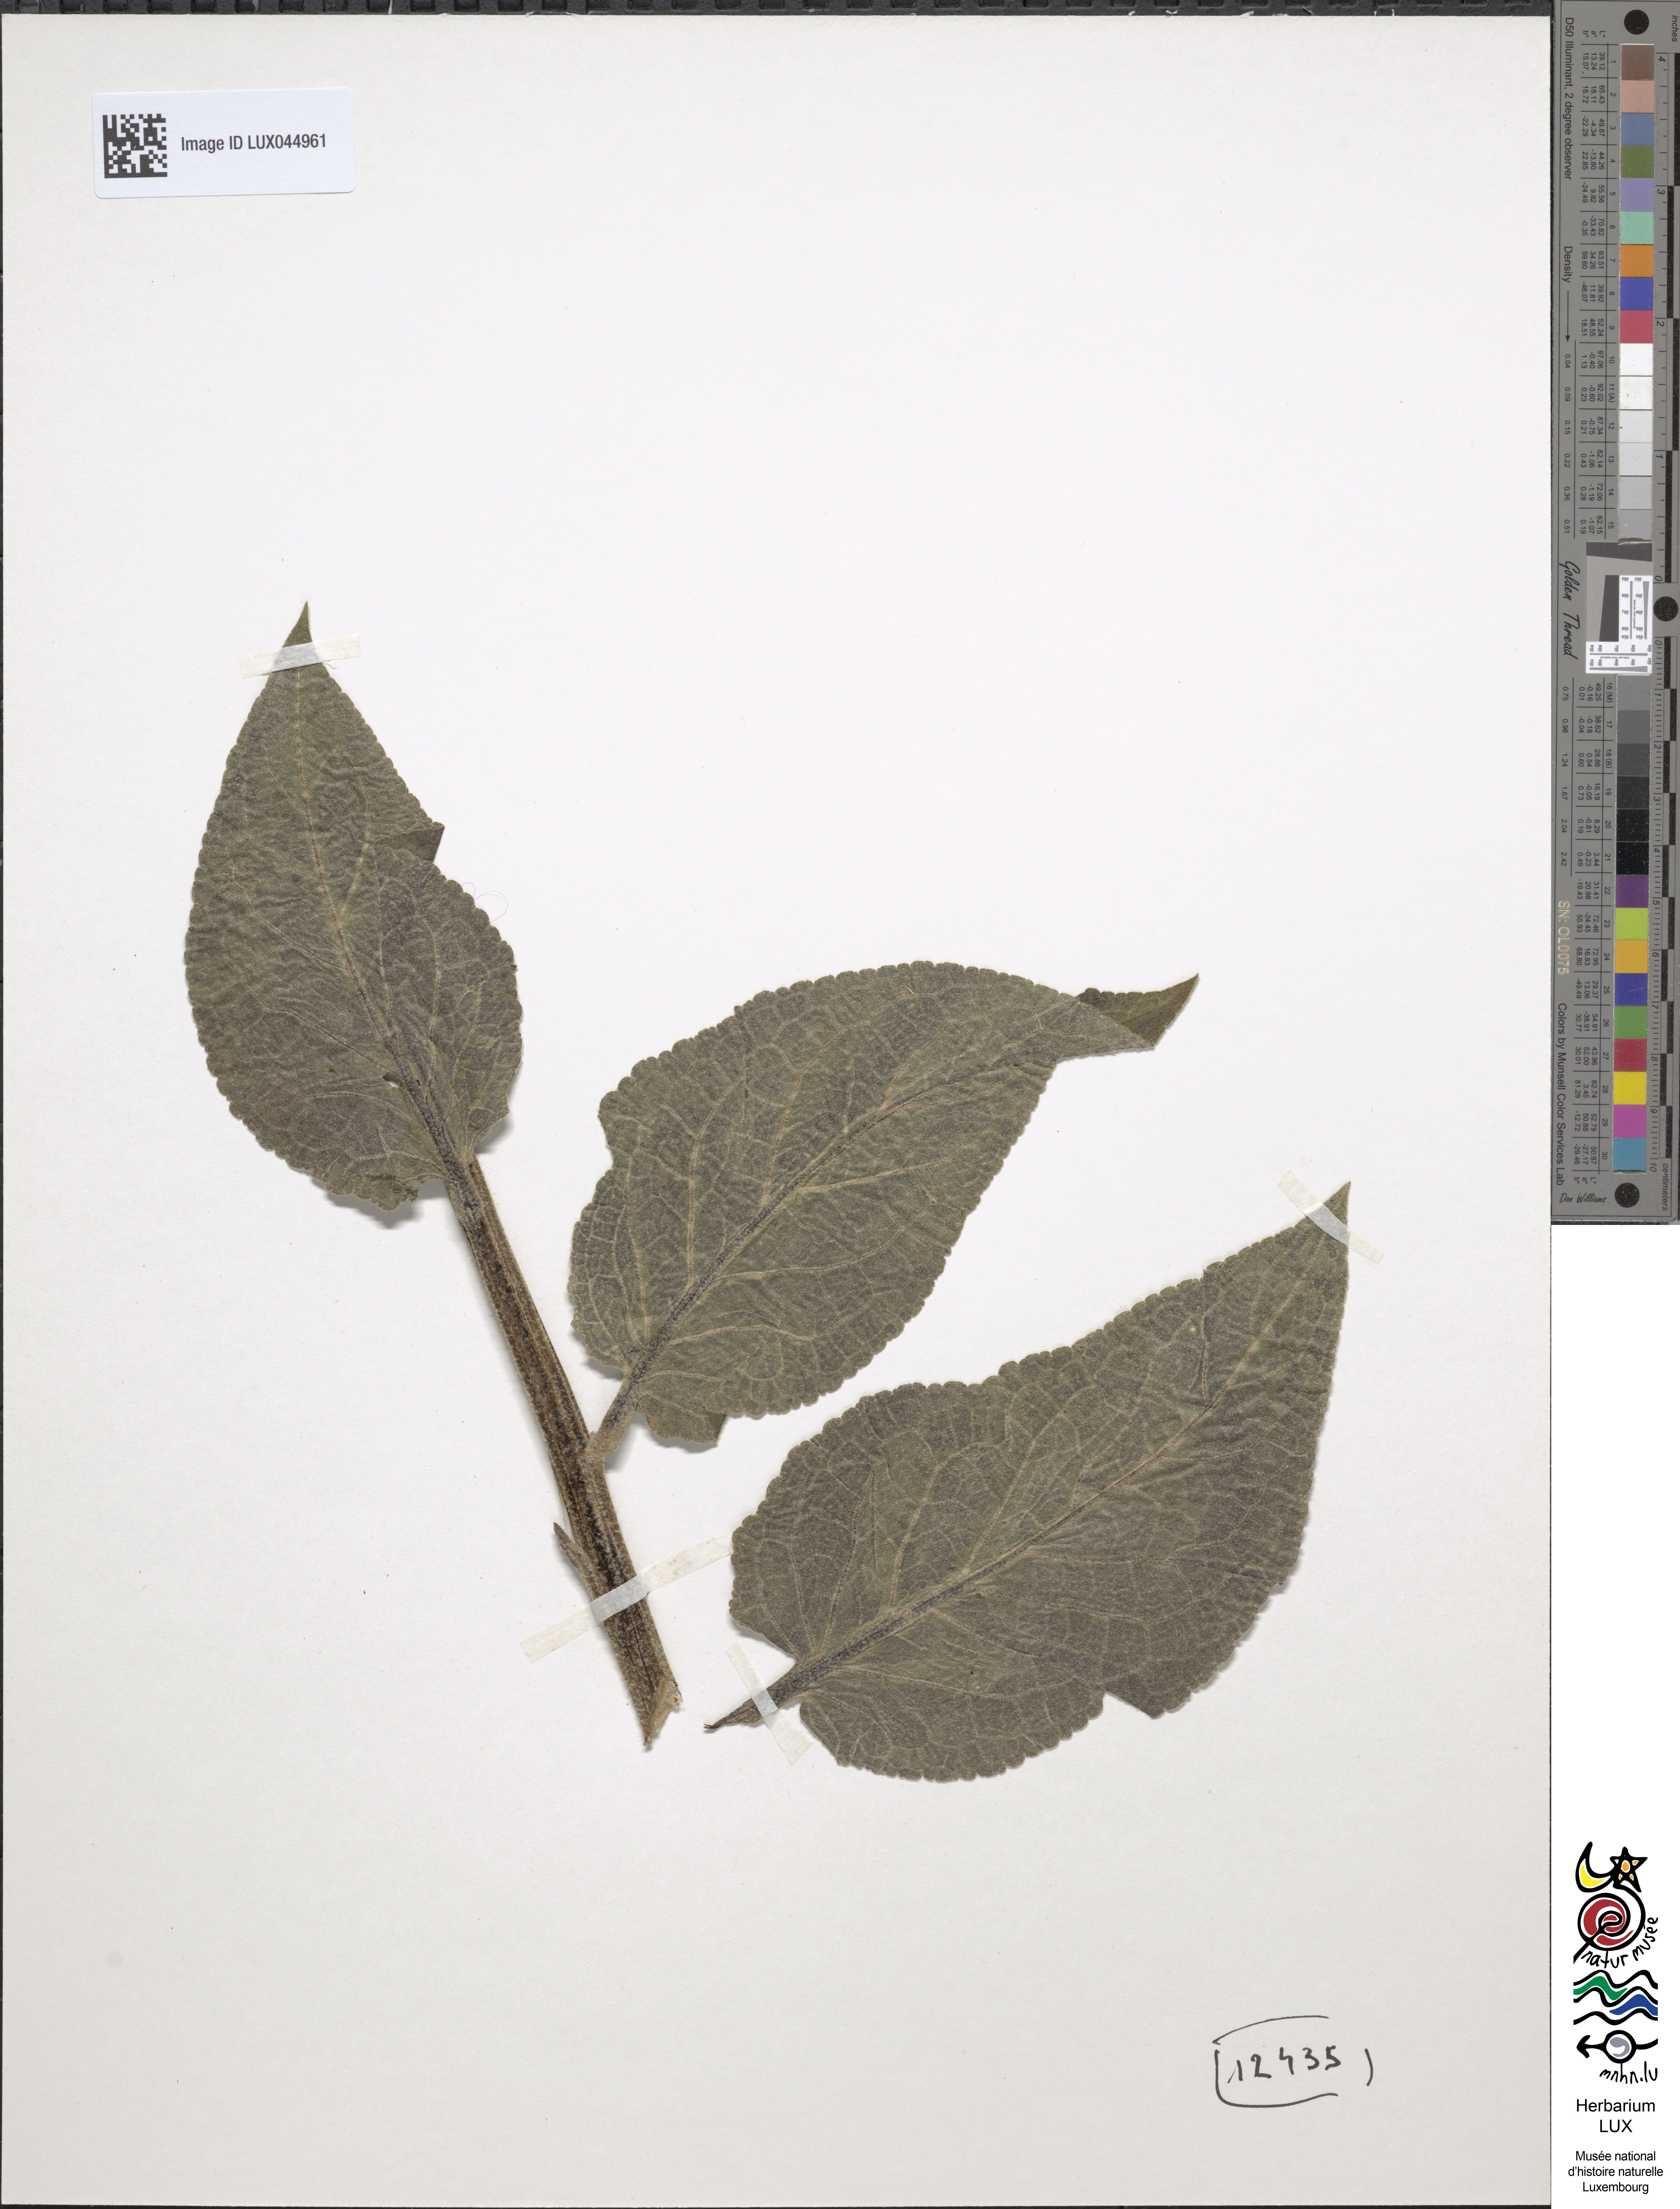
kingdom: Plantae
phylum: Tracheophyta
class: Magnoliopsida
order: Lamiales
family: Scrophulariaceae
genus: Verbascum
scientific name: Verbascum nigrum
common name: Dark mullein
